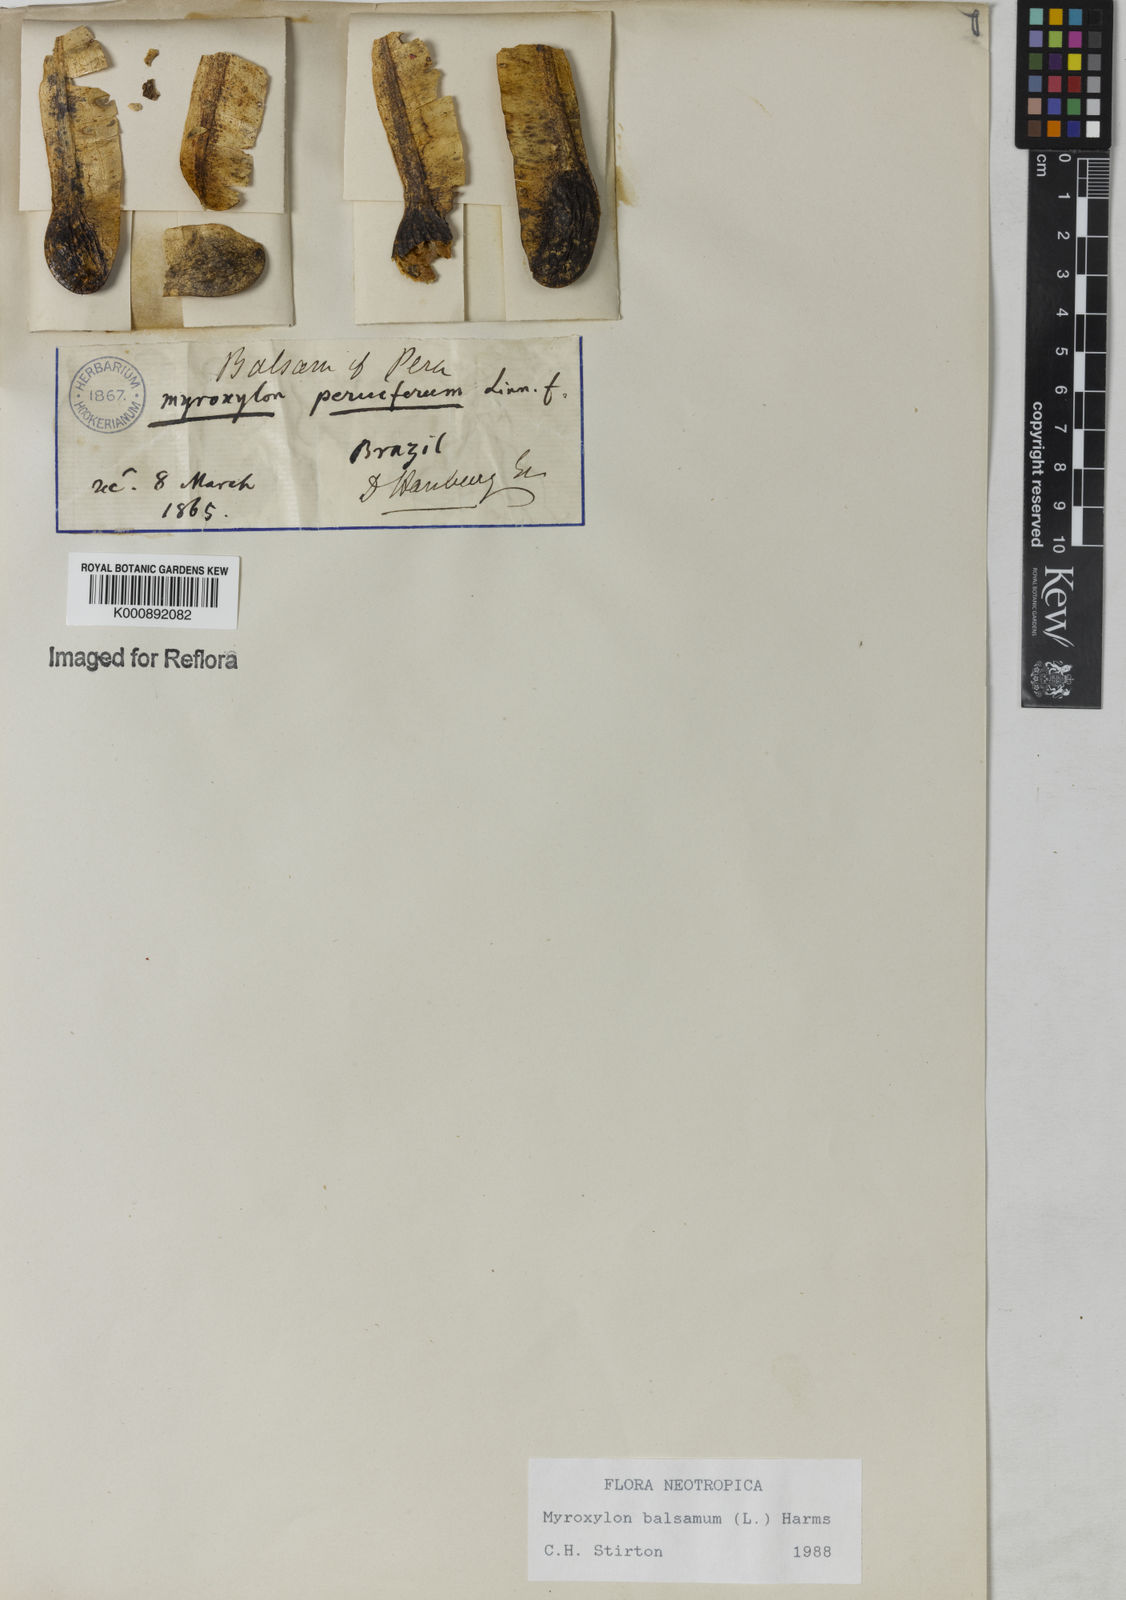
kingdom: Plantae
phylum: Tracheophyta
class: Magnoliopsida
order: Fabales
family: Fabaceae
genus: Myroxylon
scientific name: Myroxylon balsamum
